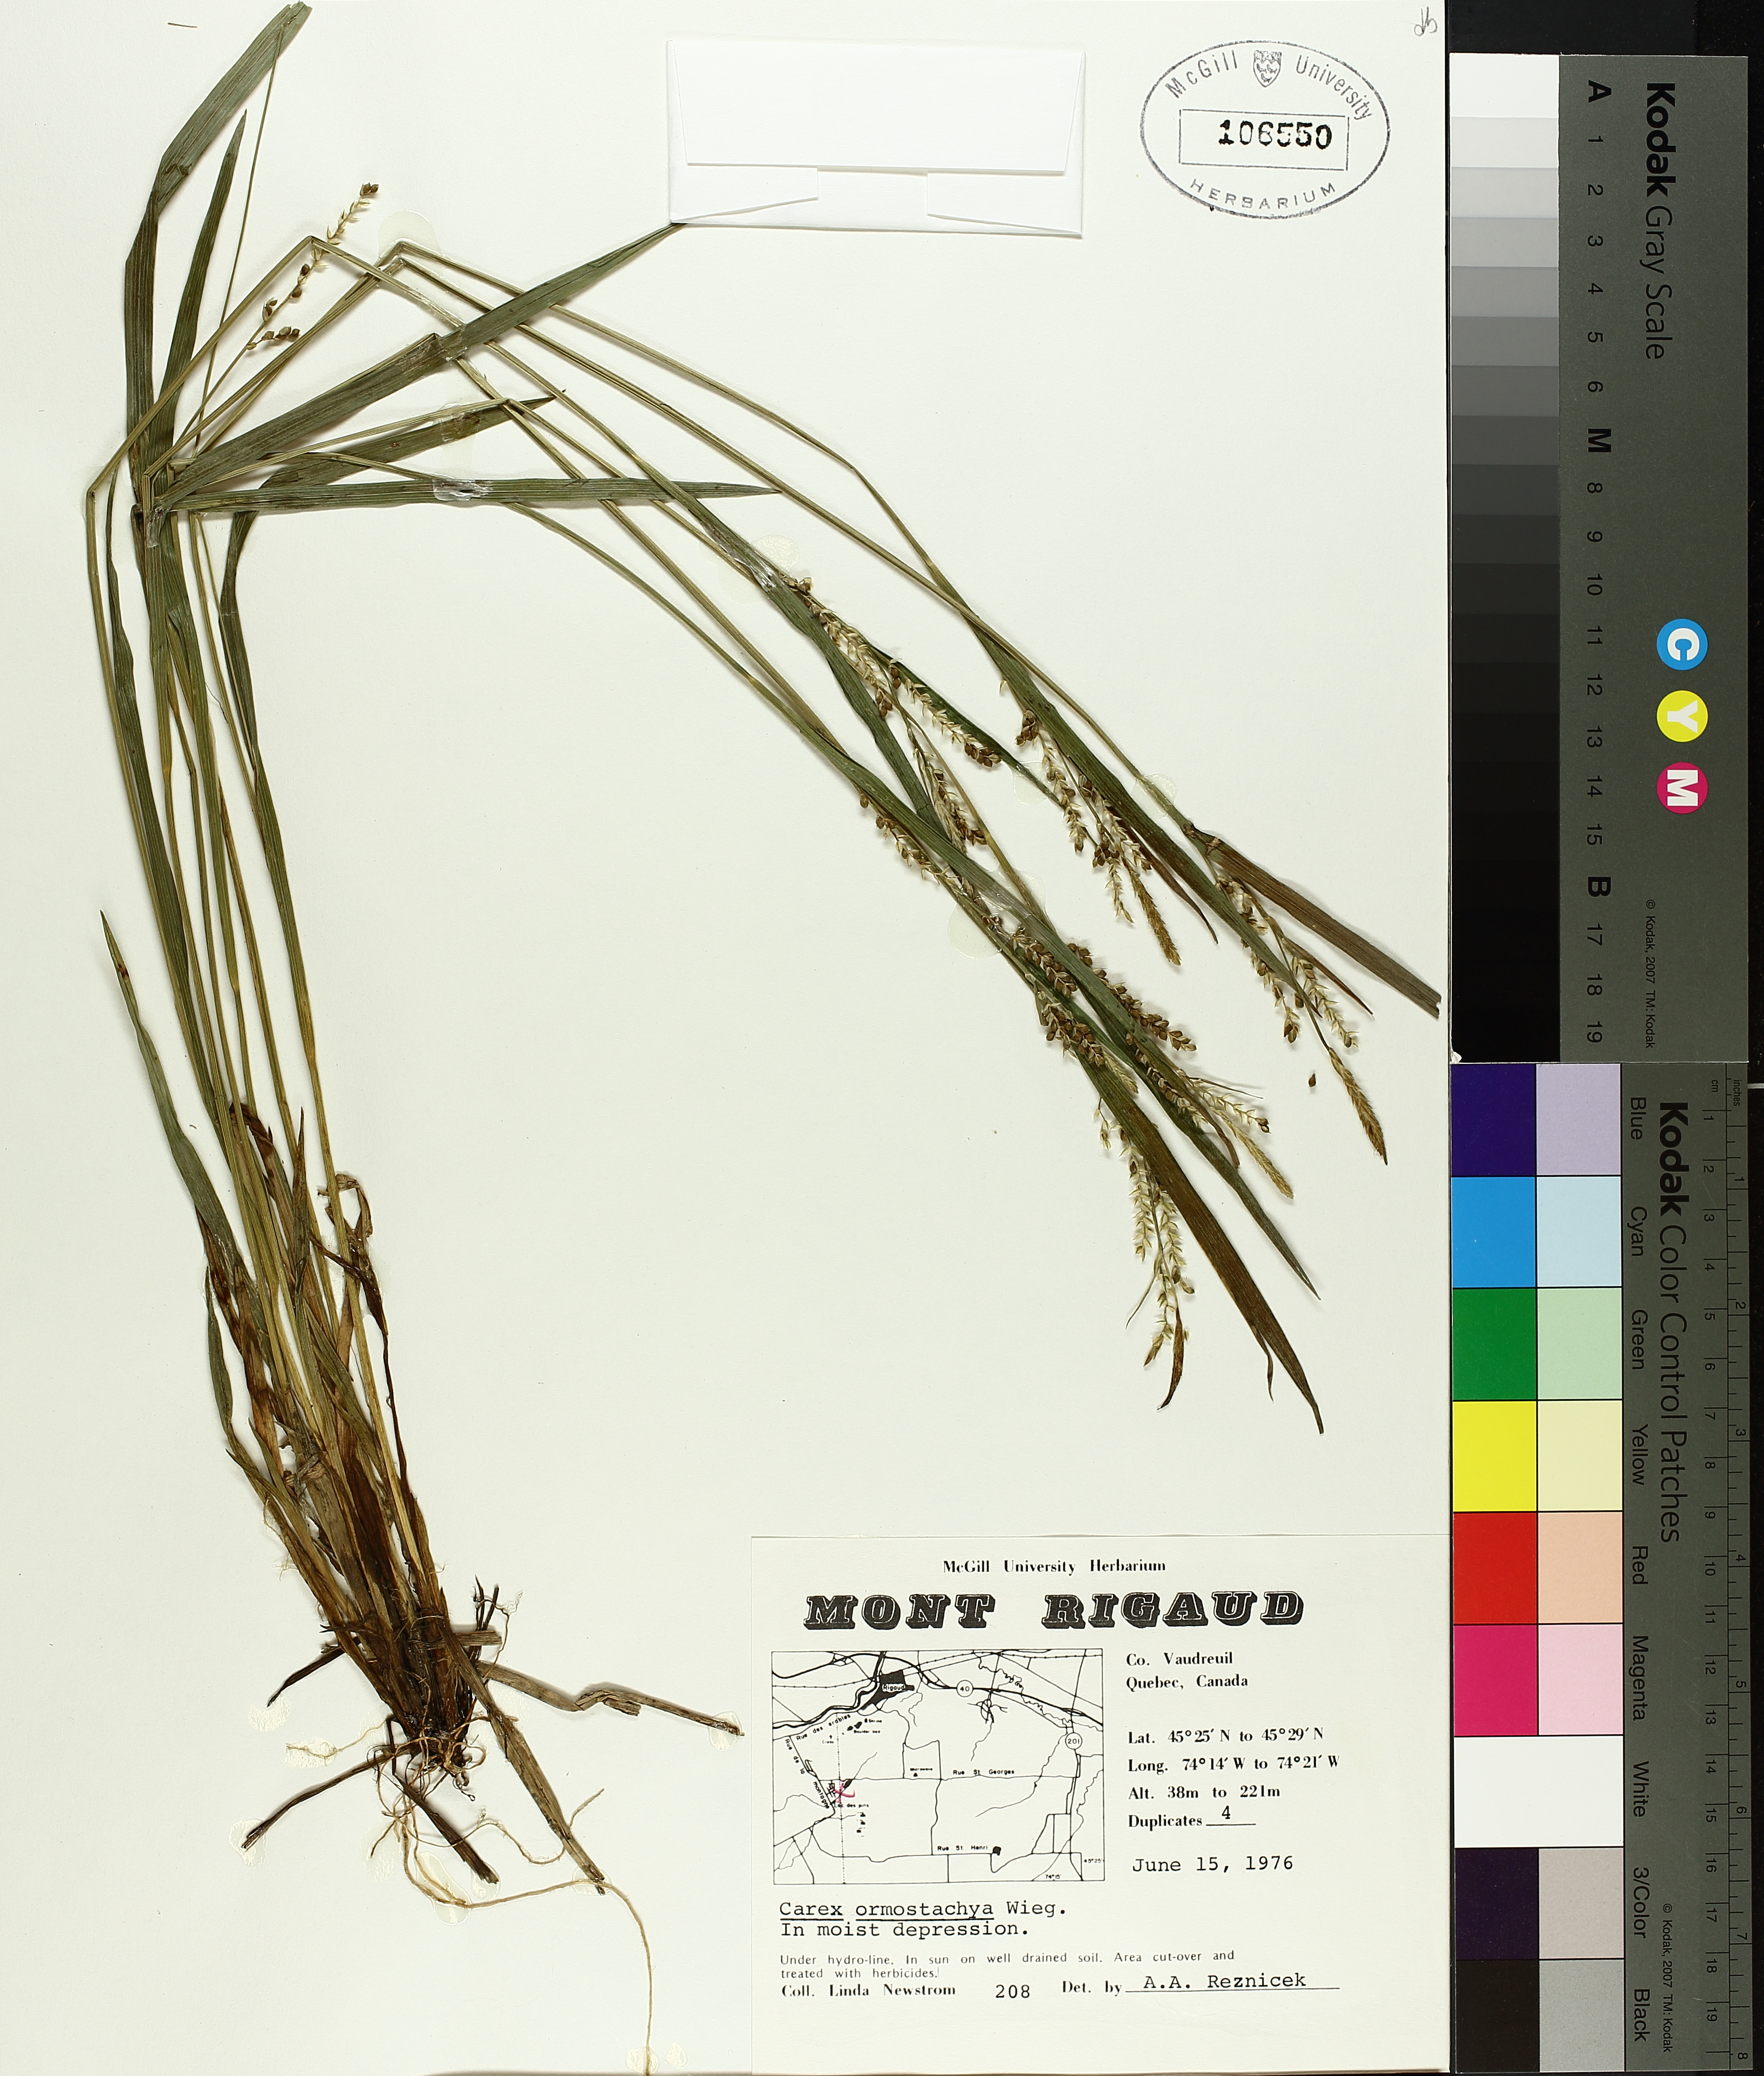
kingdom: Plantae
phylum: Tracheophyta
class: Liliopsida
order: Poales
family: Cyperaceae
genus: Carex
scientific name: Carex ormostachya
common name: Necklace spike sedge
